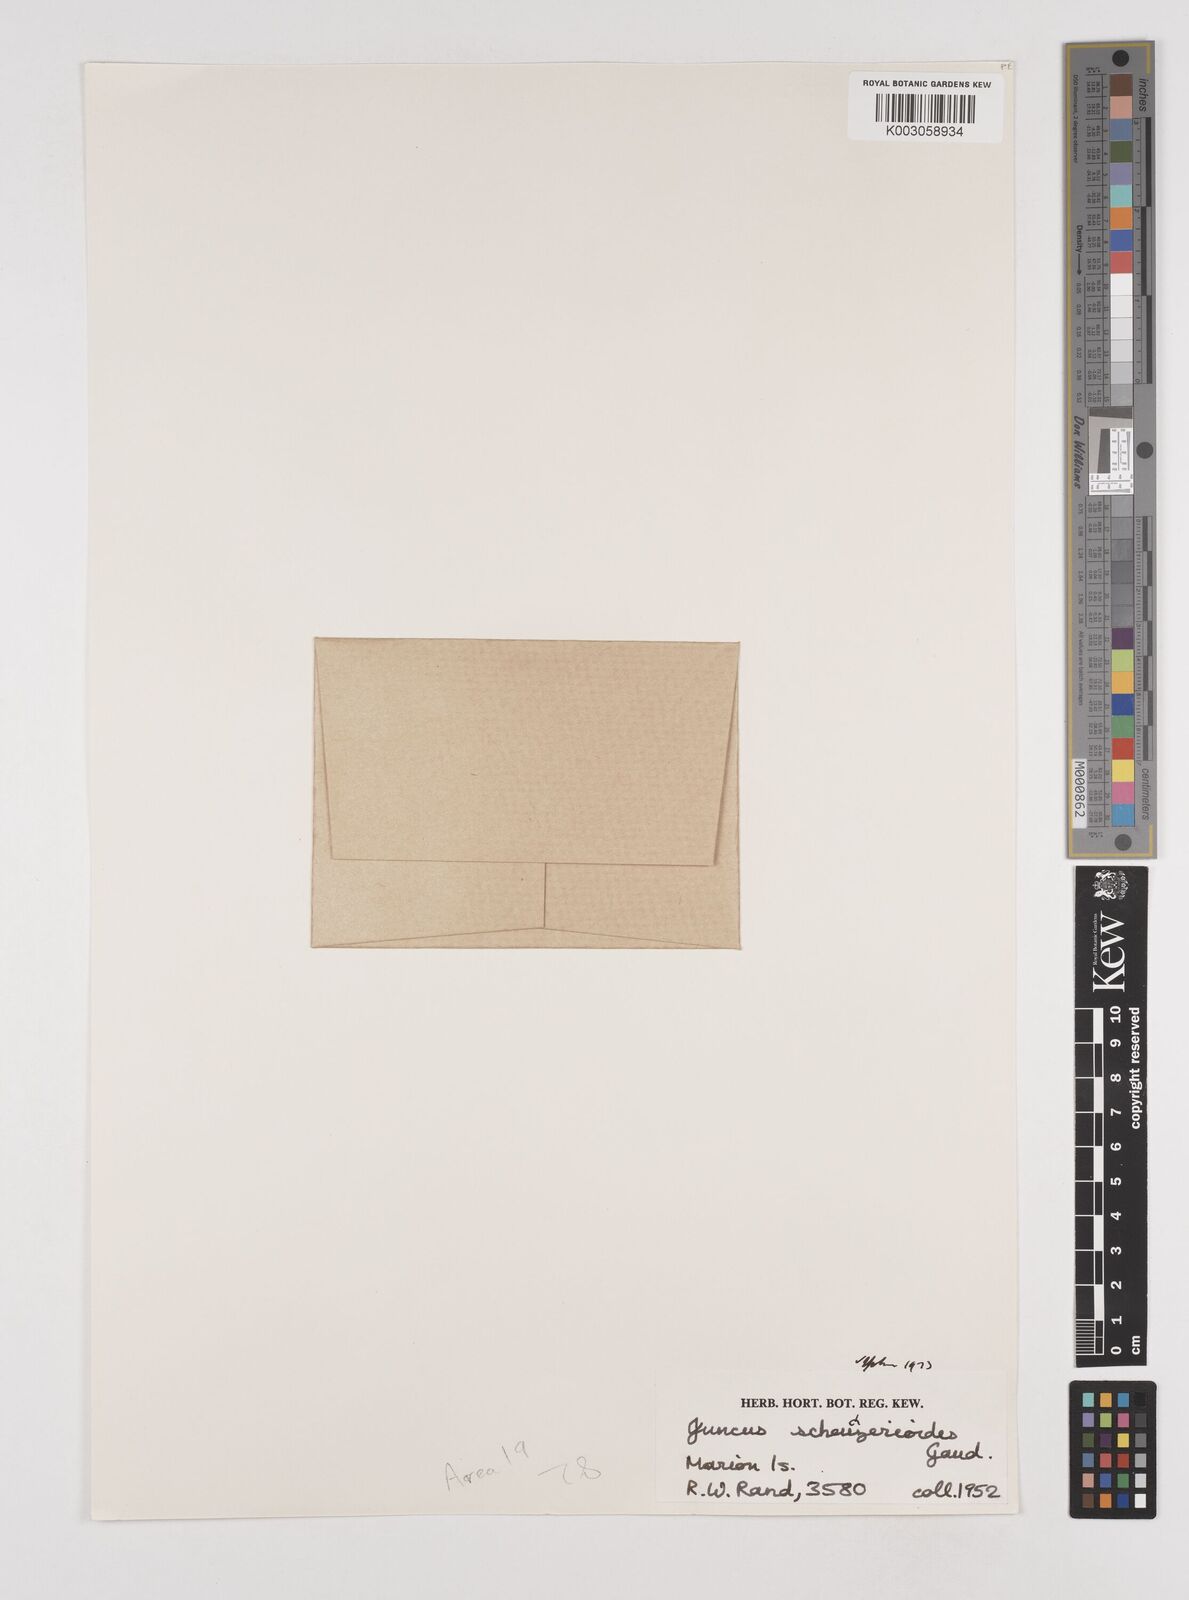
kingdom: Plantae
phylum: Tracheophyta
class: Liliopsida
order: Poales
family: Juncaceae
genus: Juncus
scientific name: Juncus scheuchzerioides
